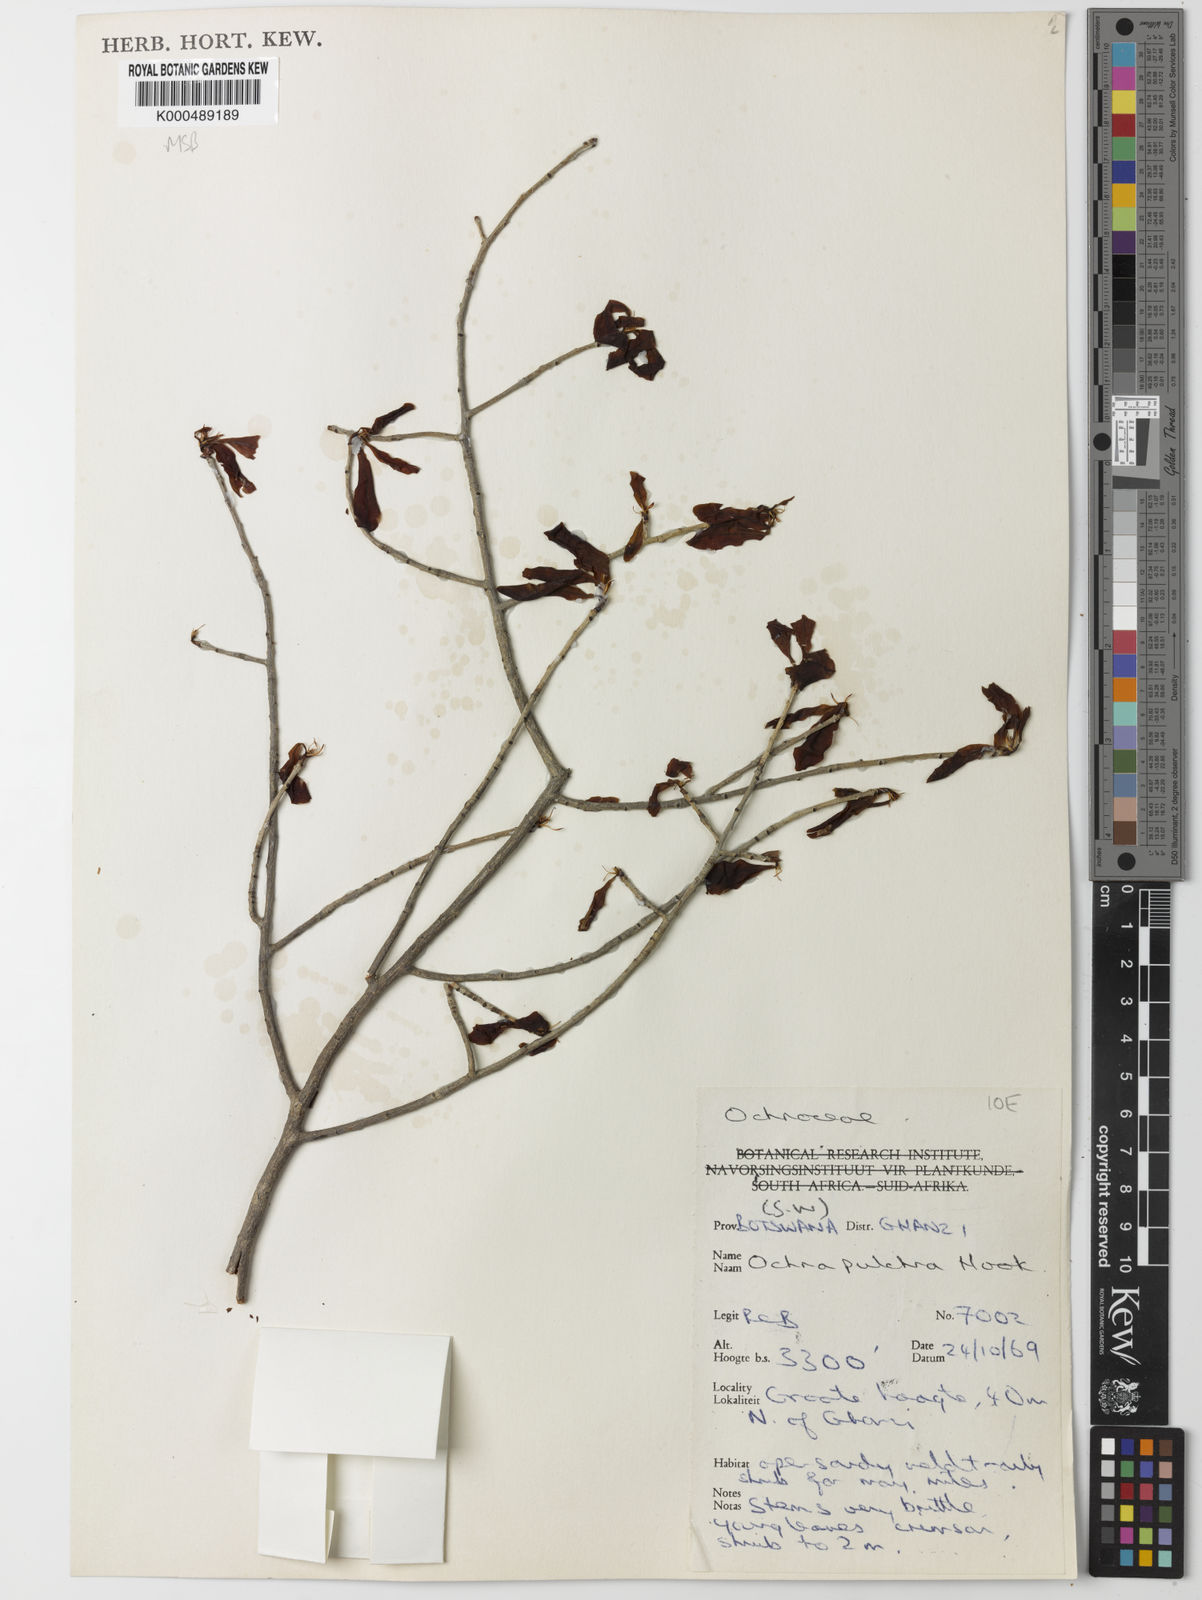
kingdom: Plantae
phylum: Tracheophyta
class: Magnoliopsida
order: Malpighiales
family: Ochnaceae
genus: Ochna
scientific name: Ochna pulchra
